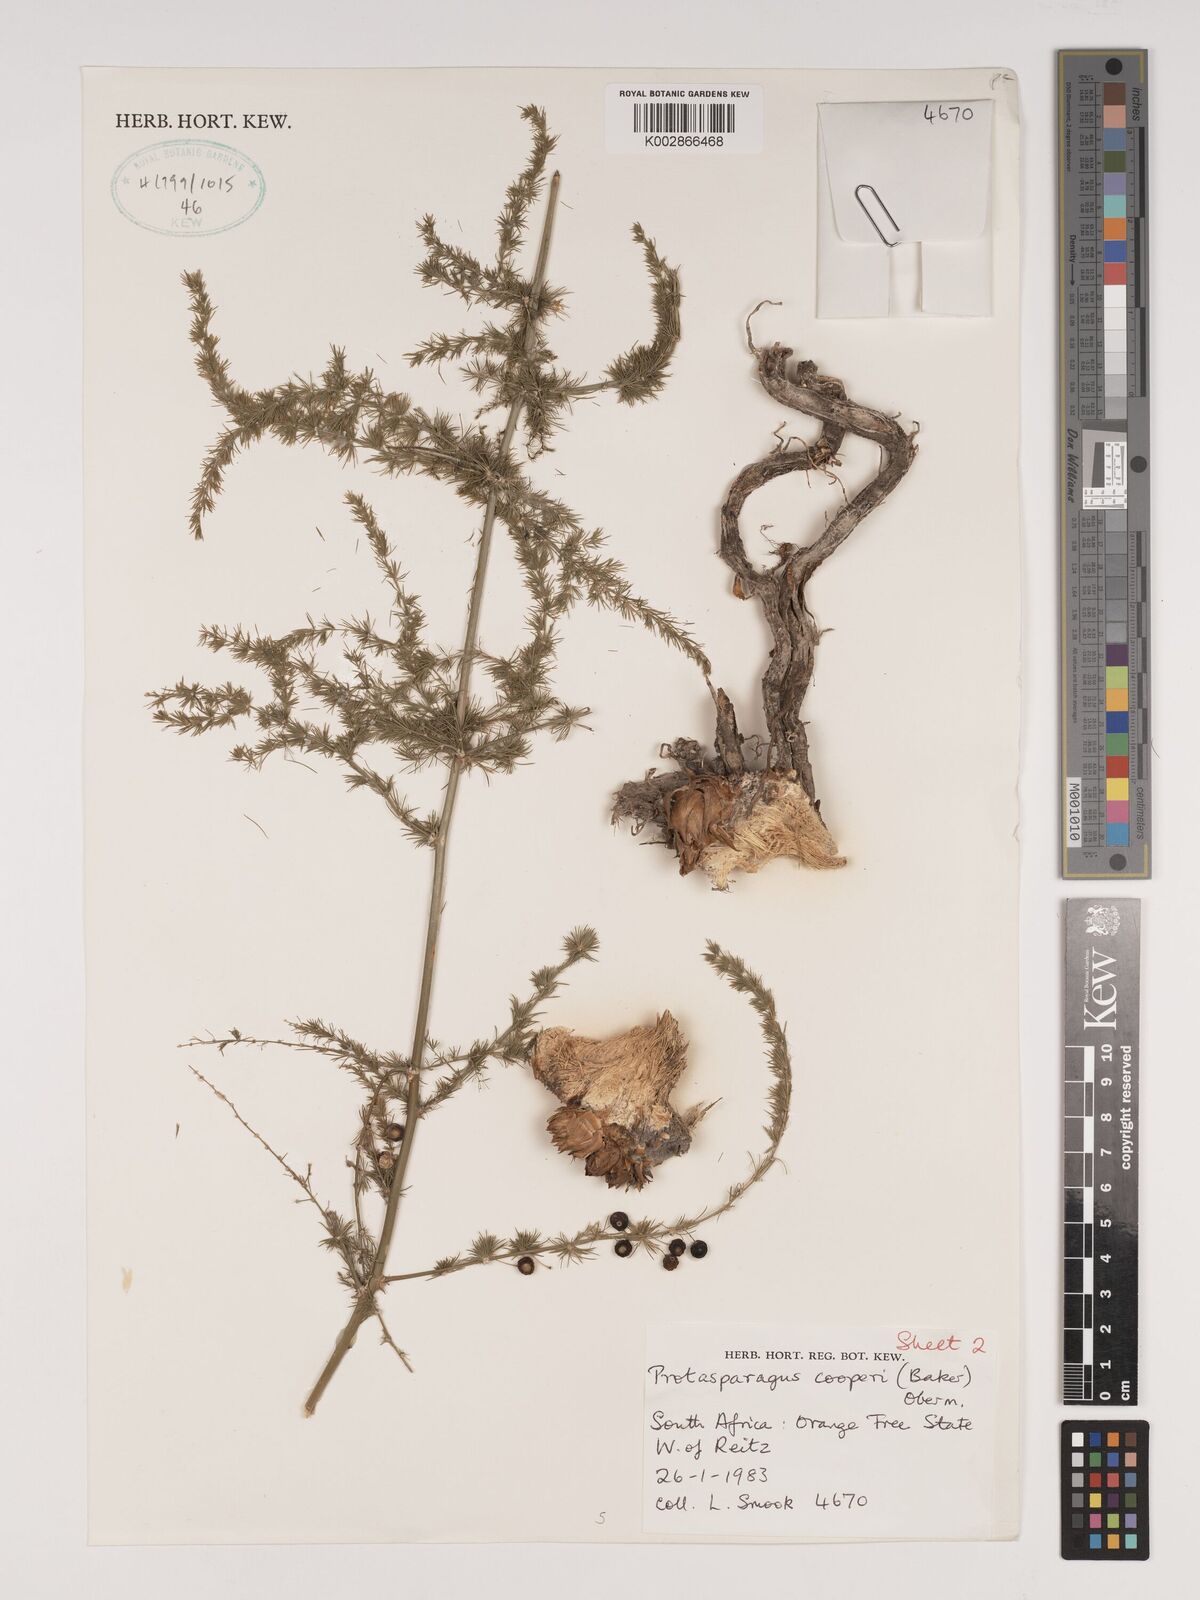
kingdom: Plantae
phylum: Tracheophyta
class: Liliopsida
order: Asparagales
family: Asparagaceae
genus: Asparagus
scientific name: Asparagus africanus
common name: Asparagus-fern
